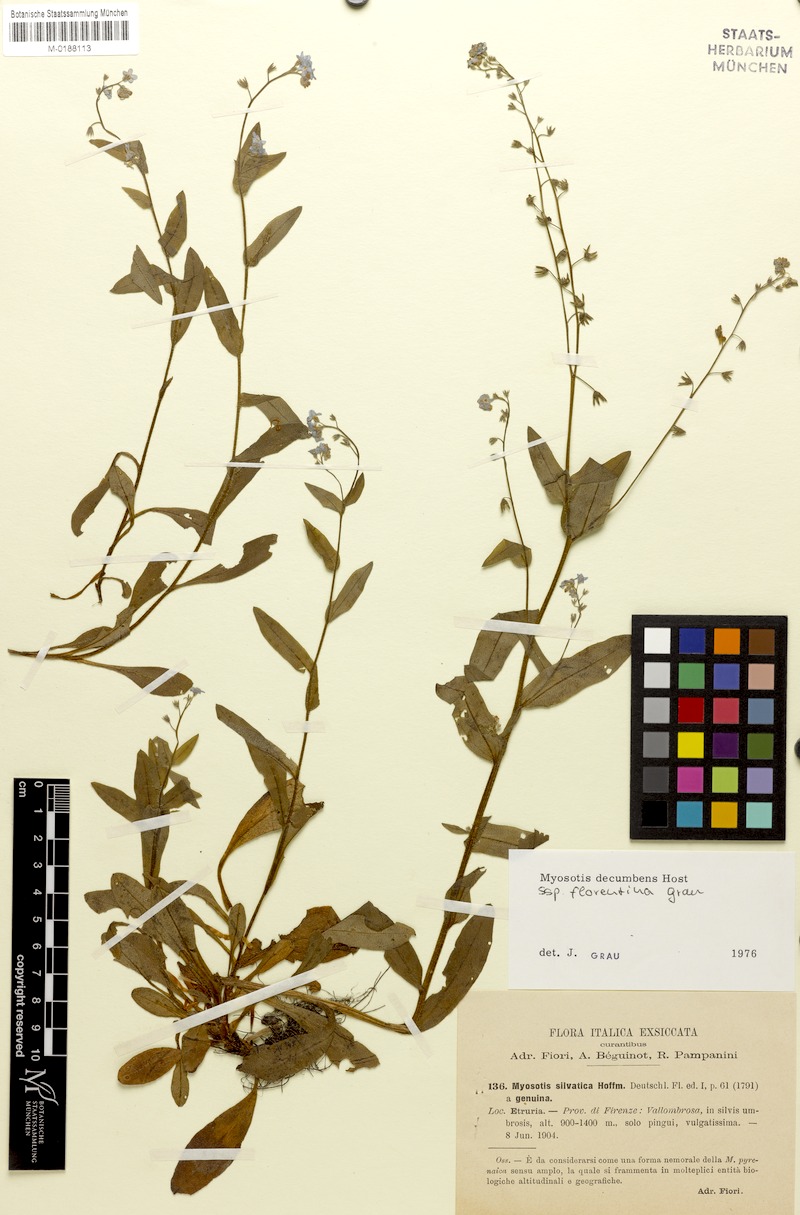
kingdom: Plantae
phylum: Tracheophyta
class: Magnoliopsida
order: Boraginales
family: Boraginaceae
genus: Myosotis
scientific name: Myosotis decumbens
